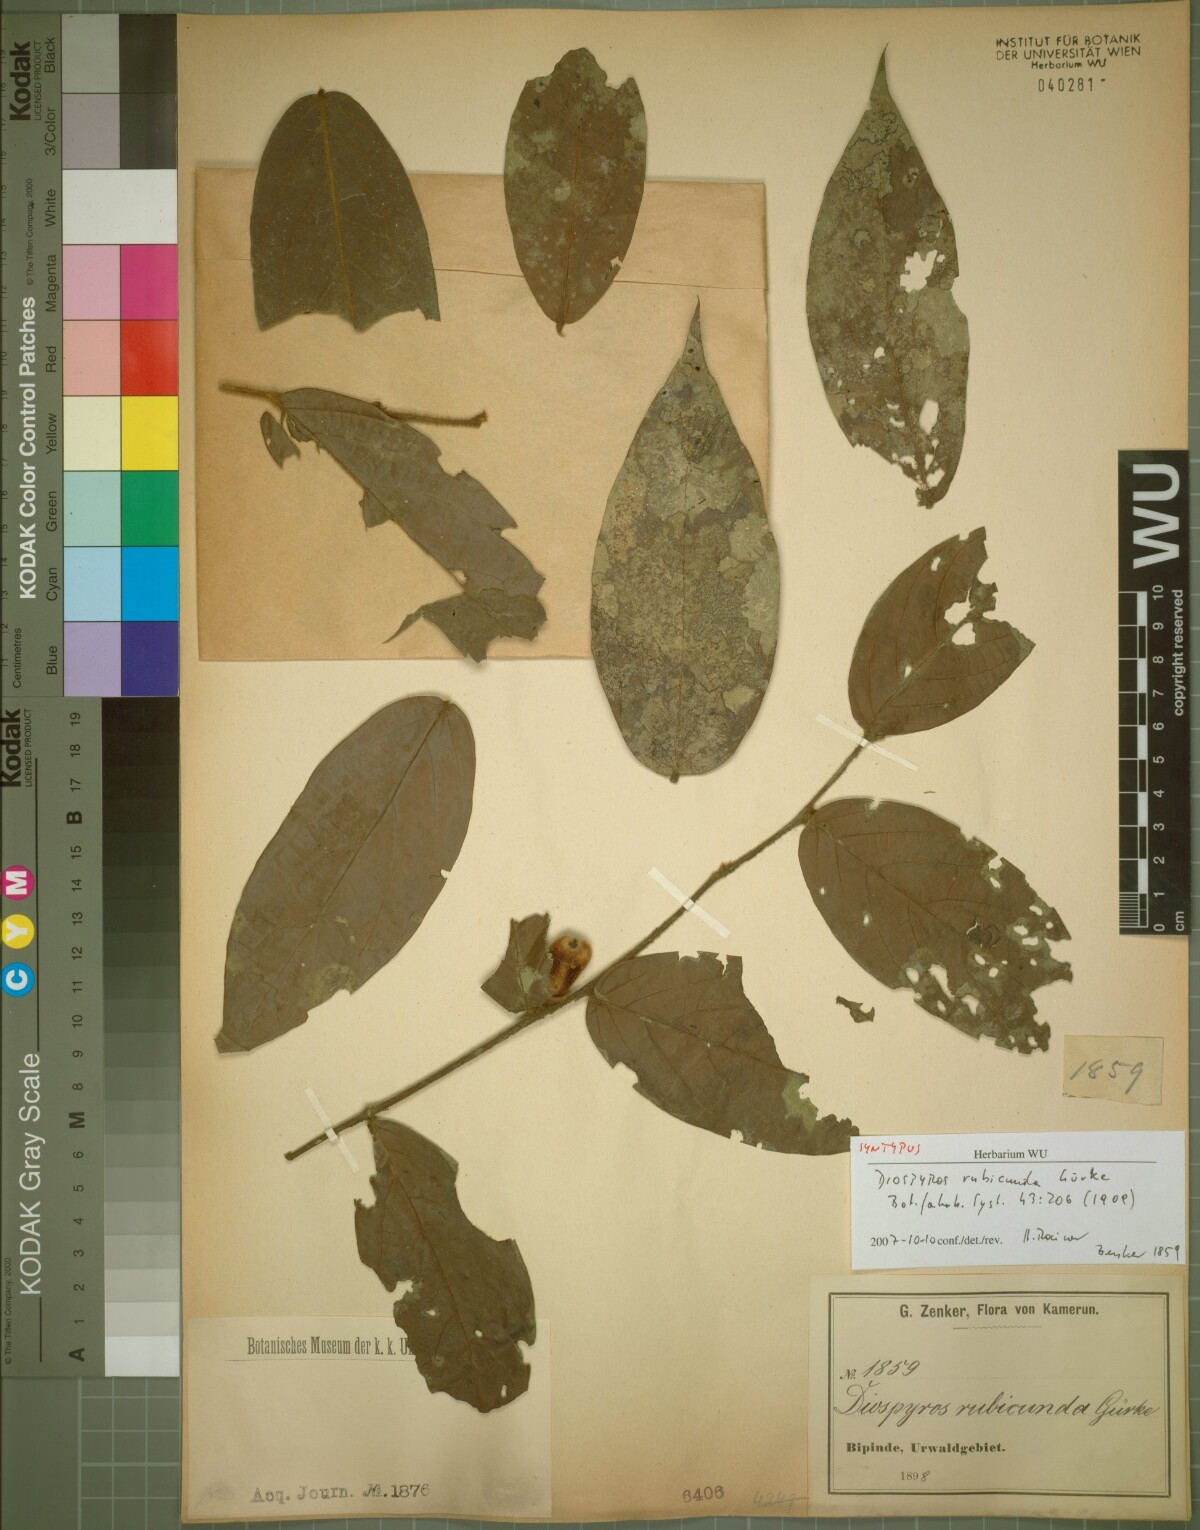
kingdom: Plantae
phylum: Tracheophyta
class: Magnoliopsida
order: Ericales
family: Ebenaceae
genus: Diospyros
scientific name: Diospyros rubicunda
